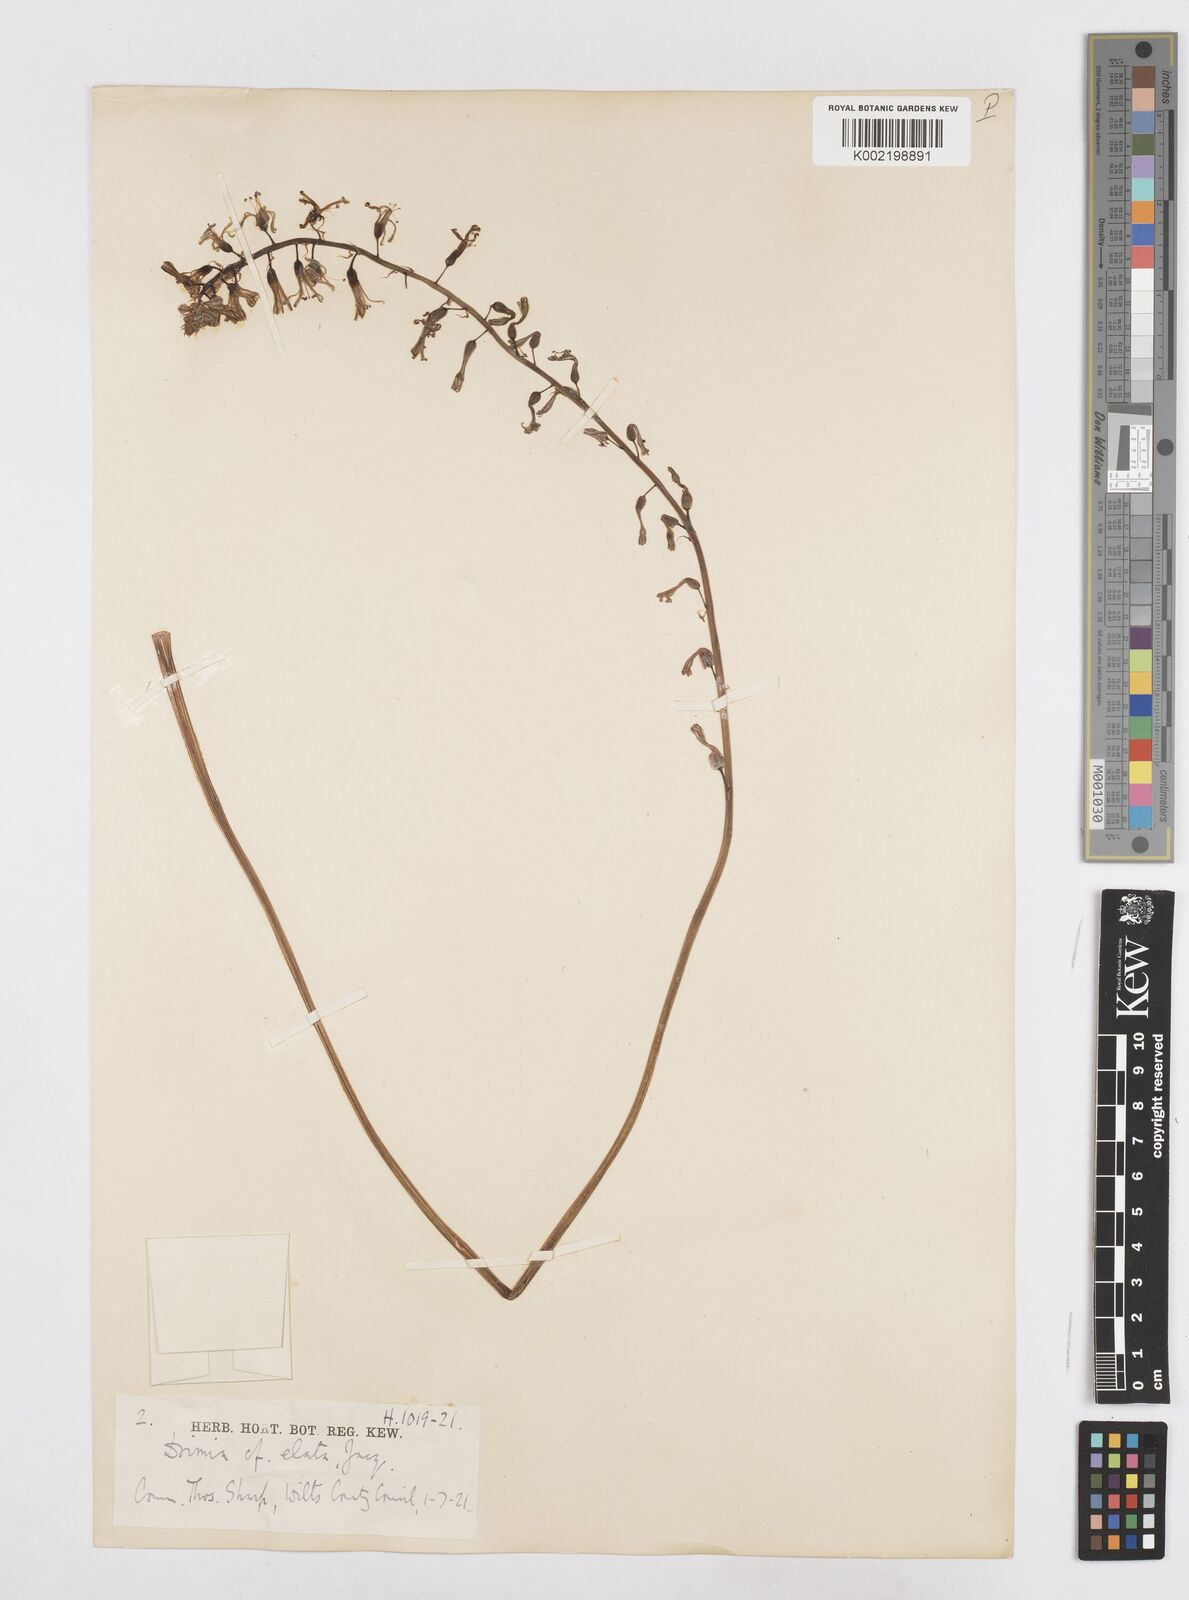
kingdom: Plantae
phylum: Tracheophyta
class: Liliopsida
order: Asparagales
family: Asparagaceae
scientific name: Asparagaceae
